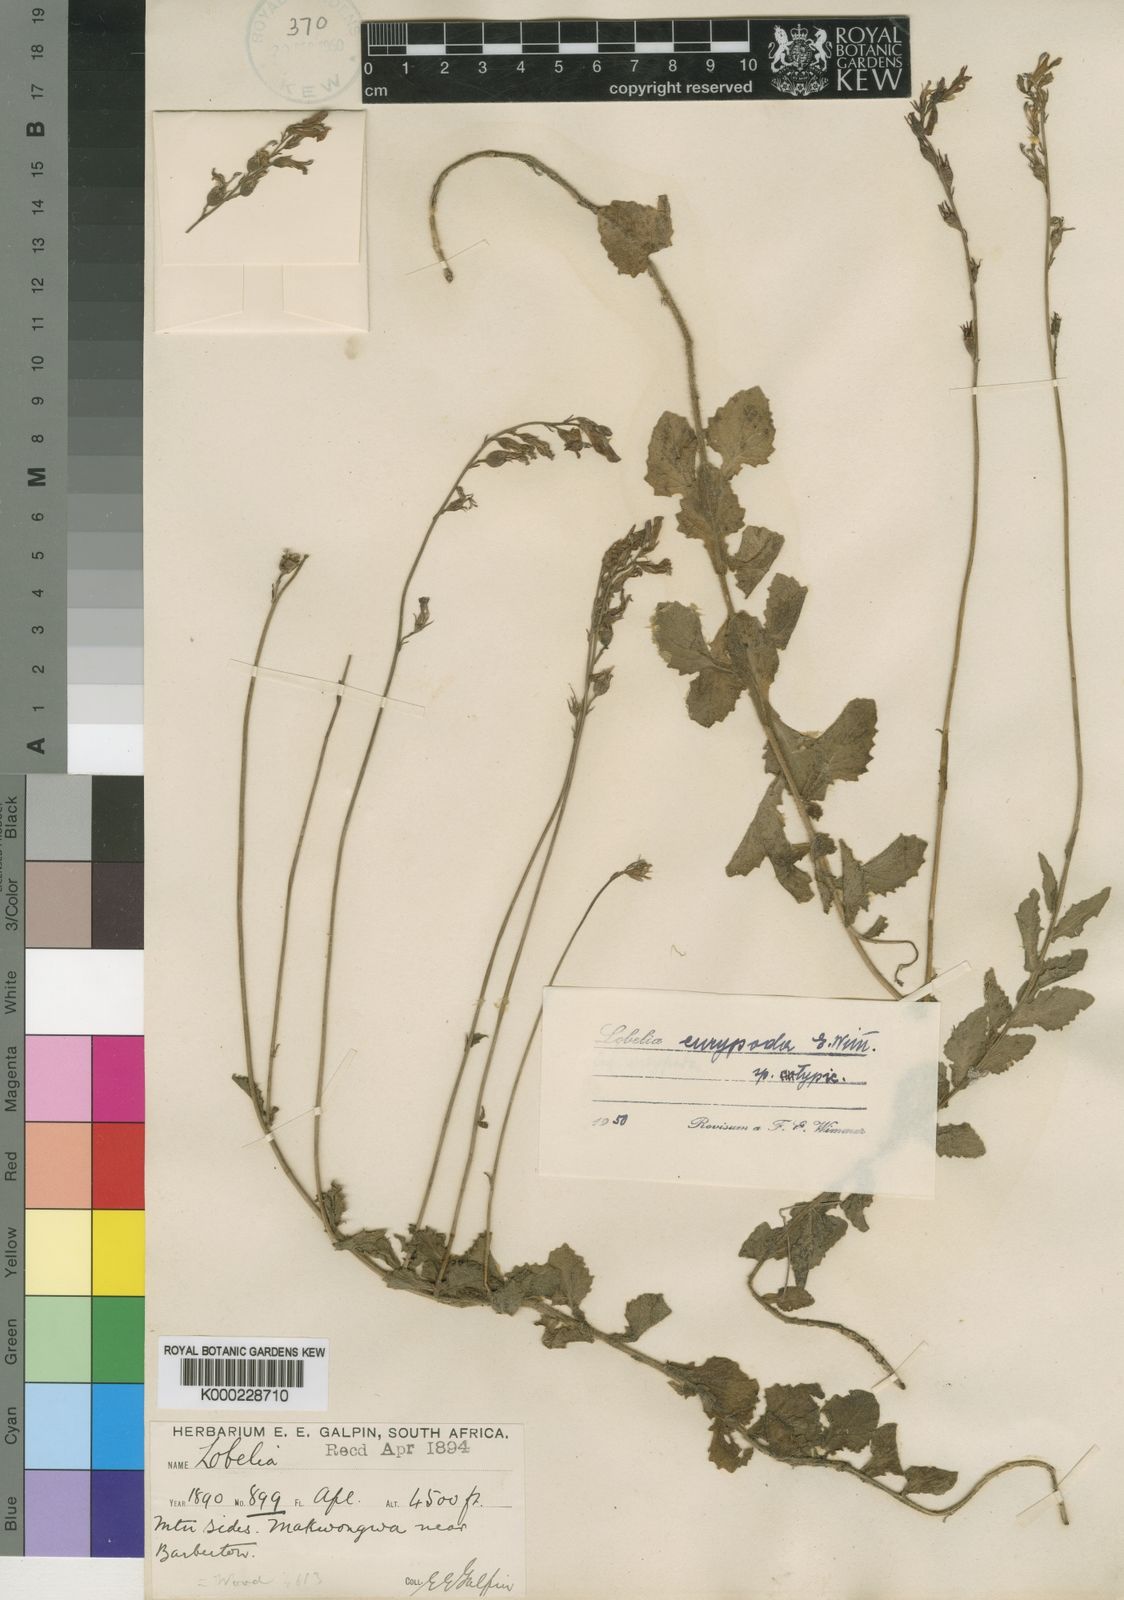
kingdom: Plantae
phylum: Tracheophyta
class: Magnoliopsida
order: Asterales
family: Campanulaceae
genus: Lobelia
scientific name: Lobelia eurypoda
